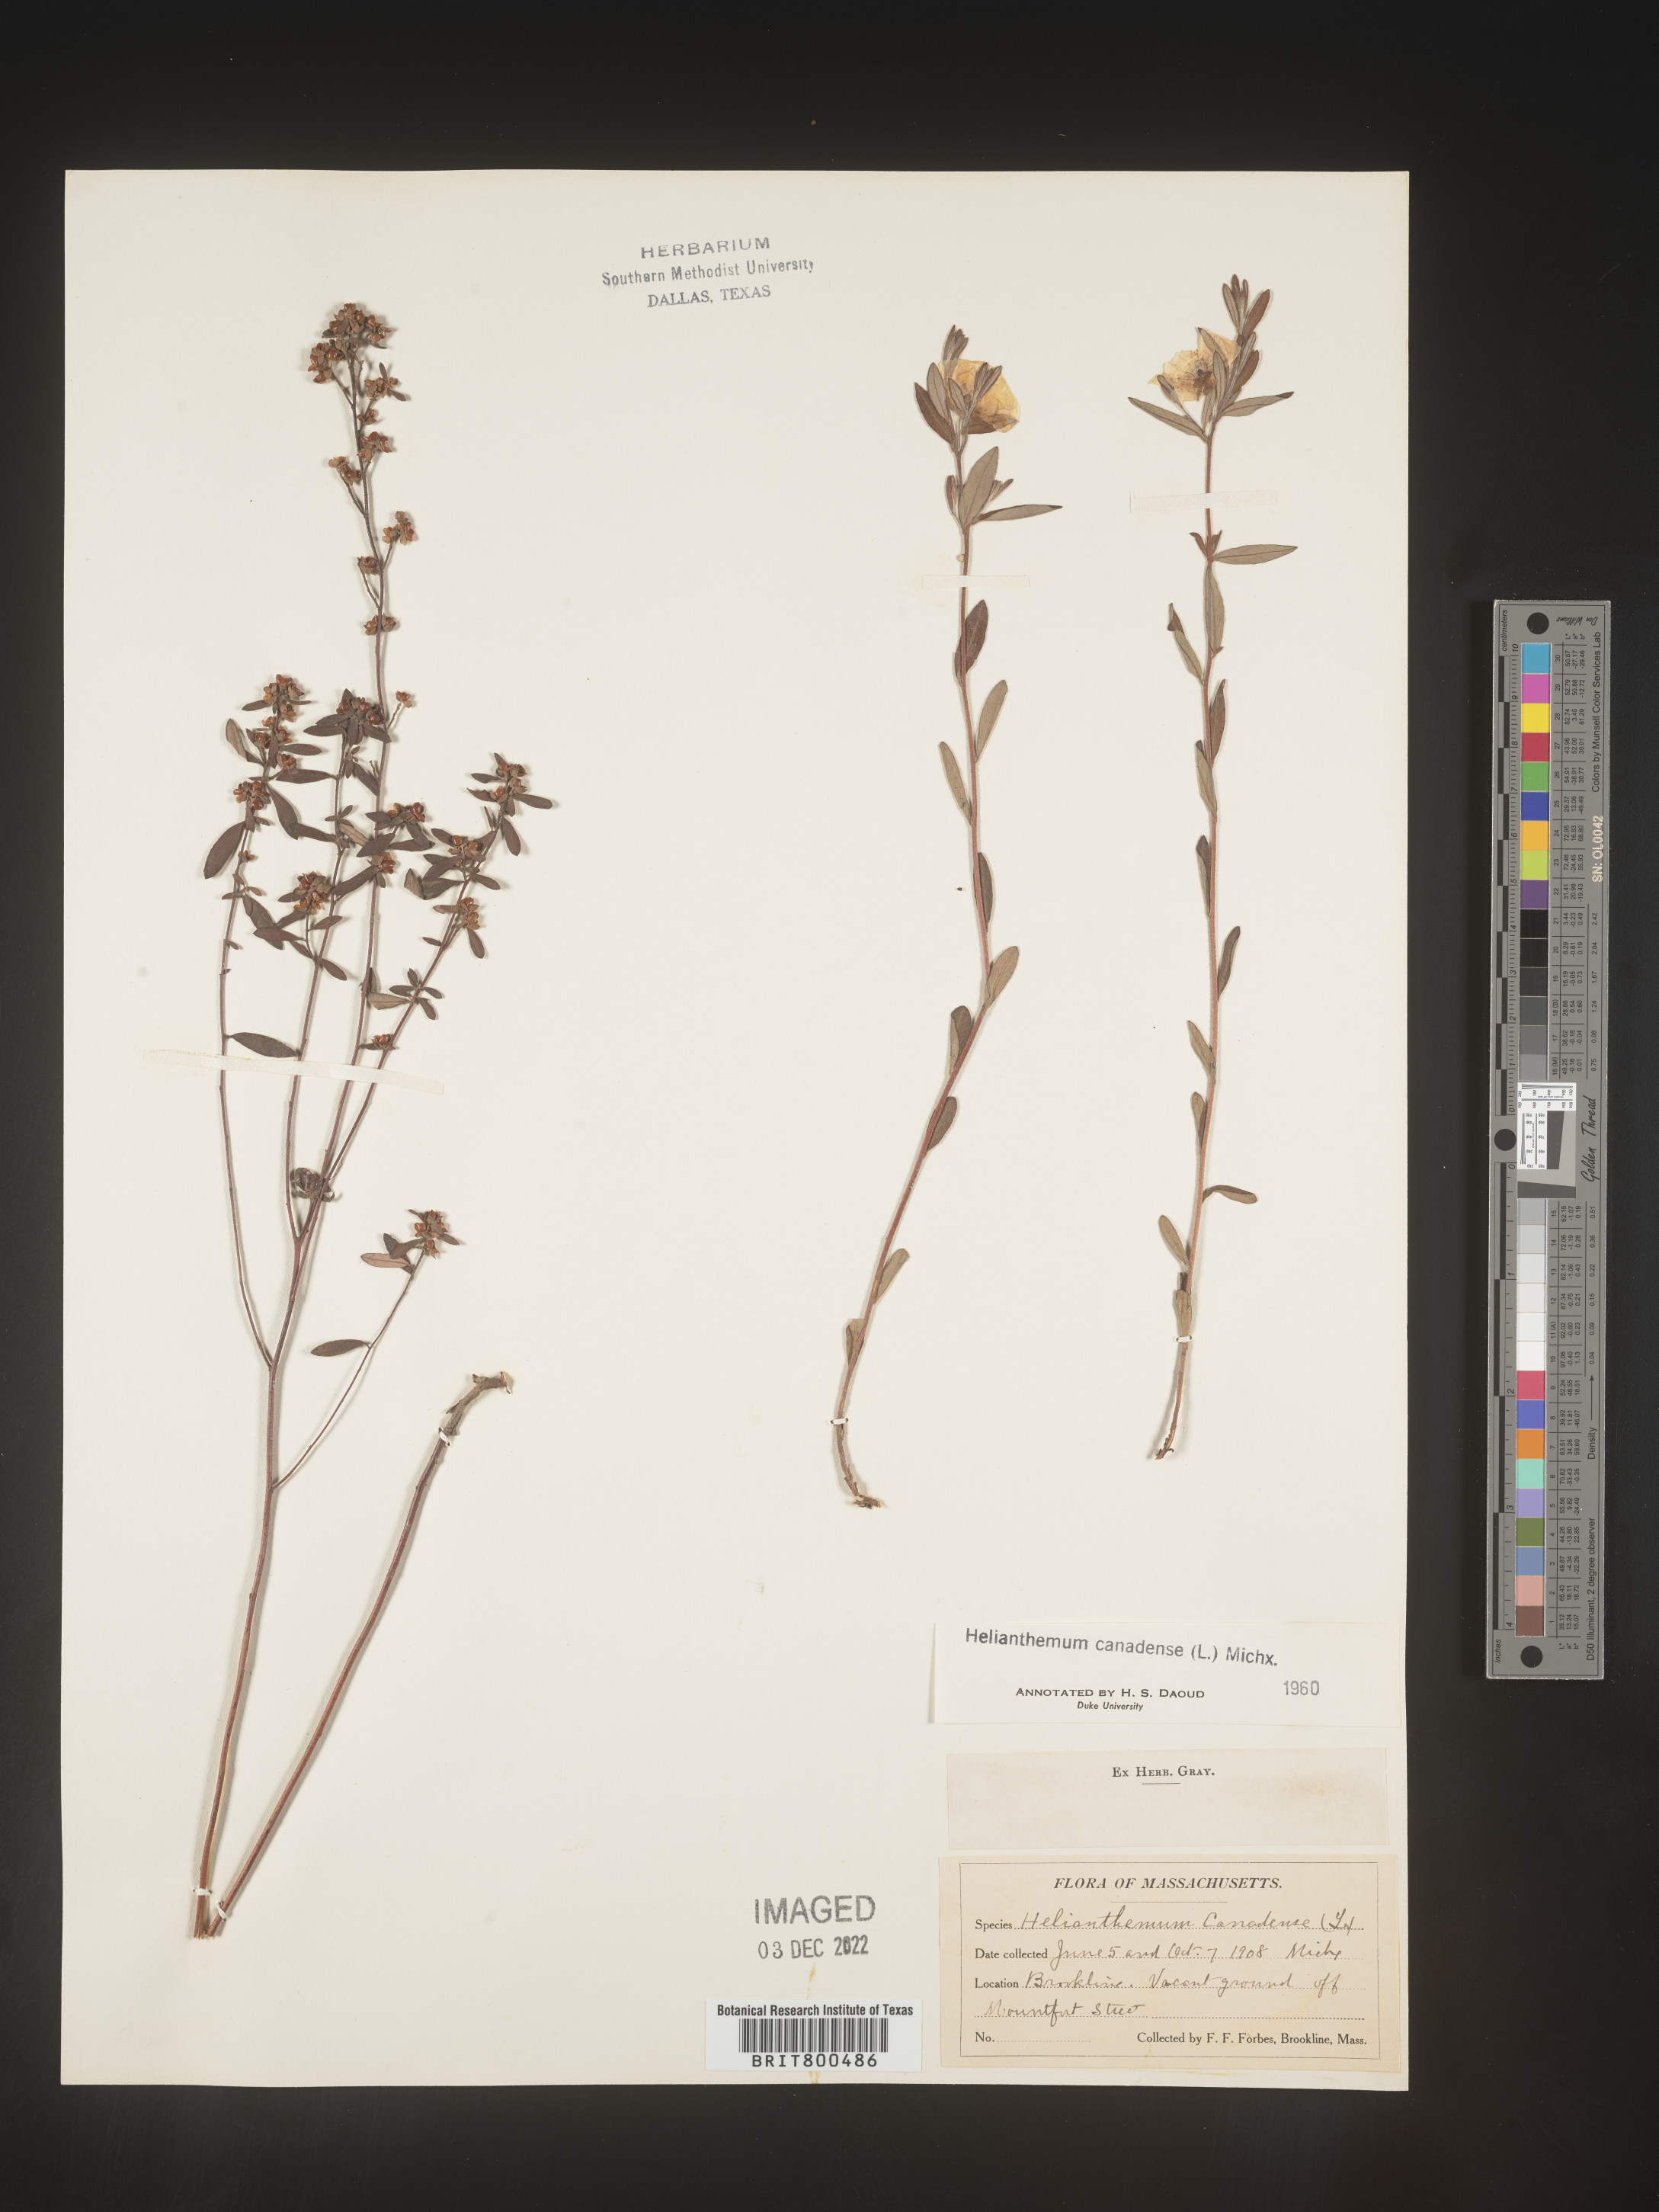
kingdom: Plantae
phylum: Tracheophyta
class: Magnoliopsida
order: Malvales
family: Cistaceae
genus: Crocanthemum
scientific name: Crocanthemum canadense
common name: Canada frostweed
